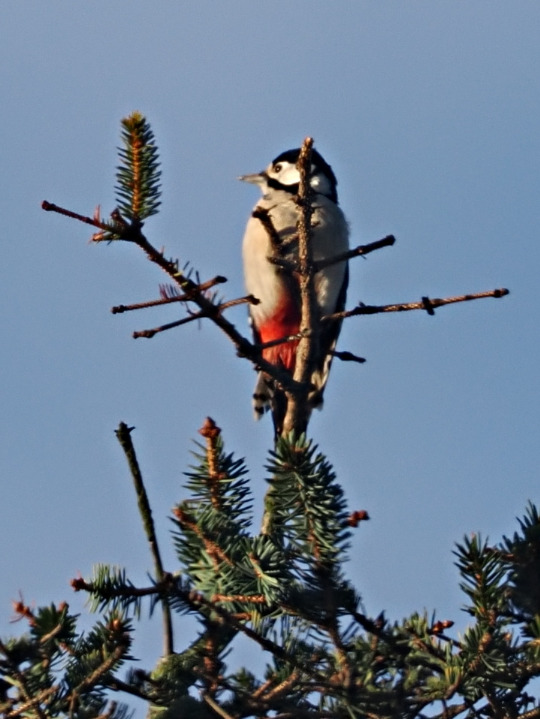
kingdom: Animalia
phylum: Chordata
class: Aves
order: Piciformes
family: Picidae
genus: Dendrocopos
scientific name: Dendrocopos major
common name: Stor flagspætte
